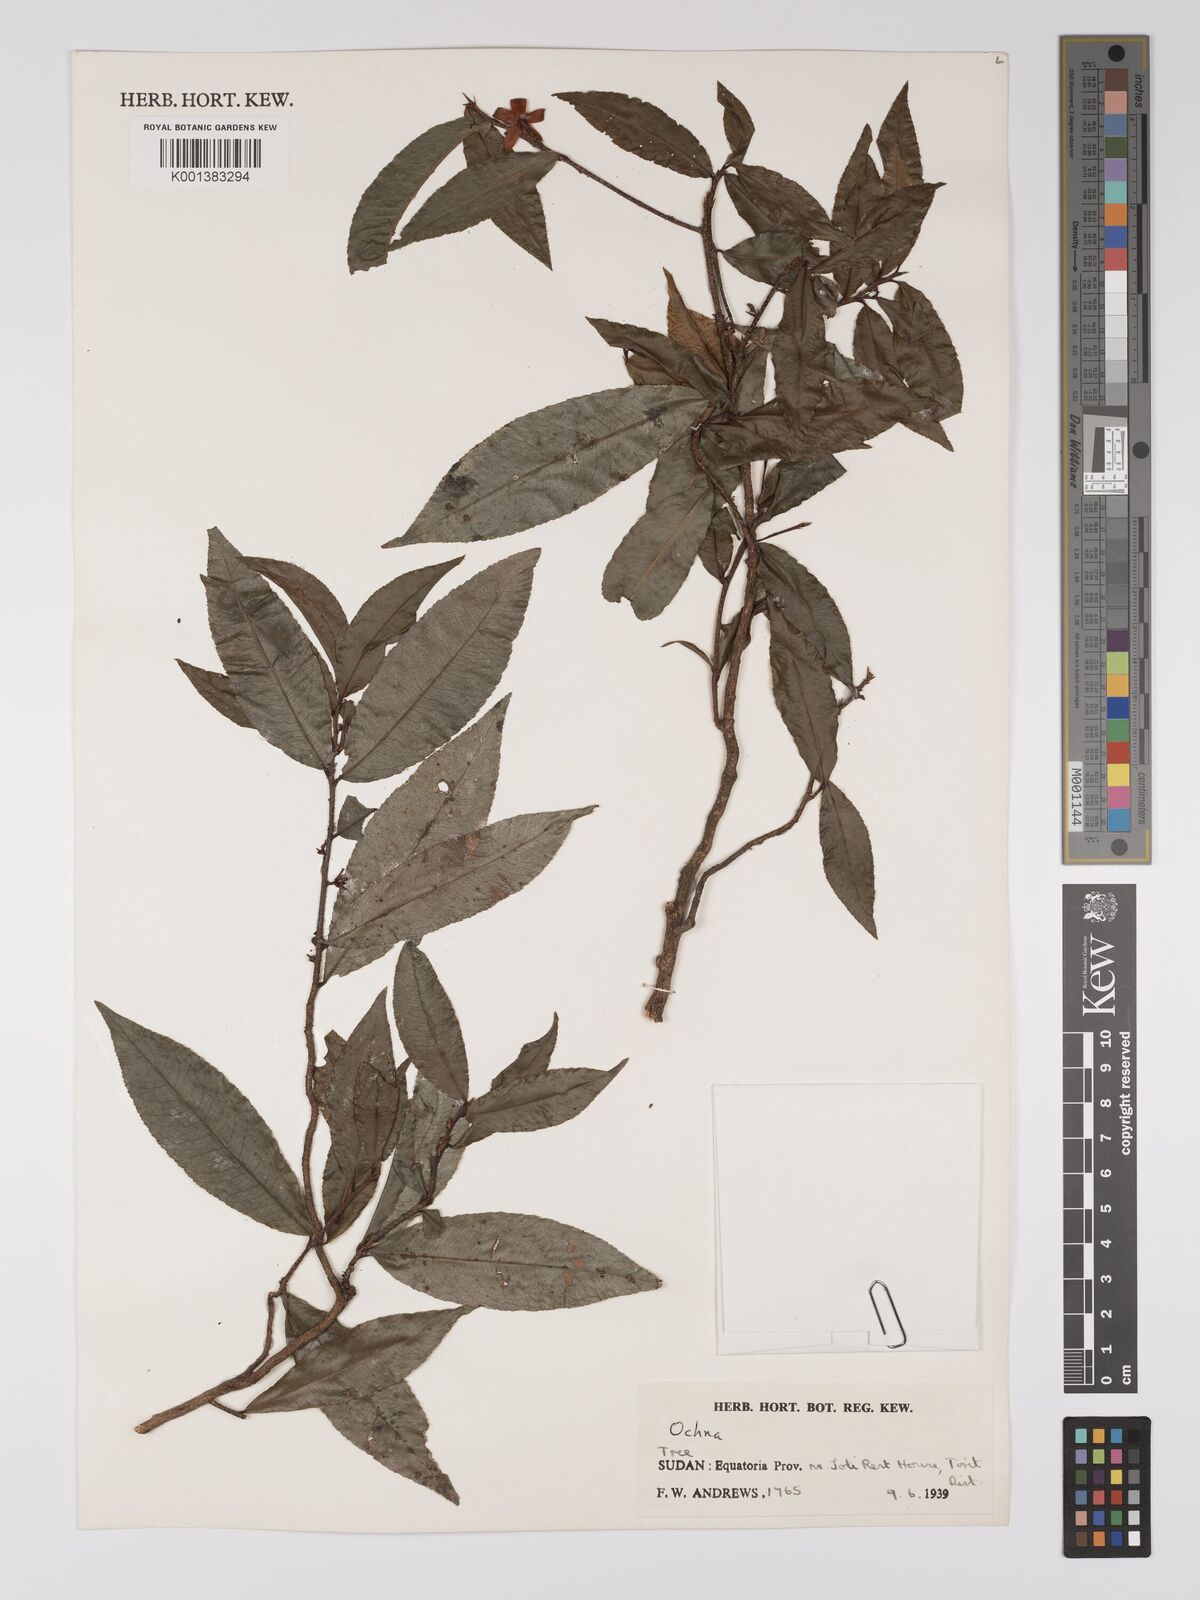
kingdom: Plantae
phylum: Tracheophyta
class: Magnoliopsida
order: Malpighiales
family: Ochnaceae
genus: Ochna
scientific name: Ochna bracteosa
